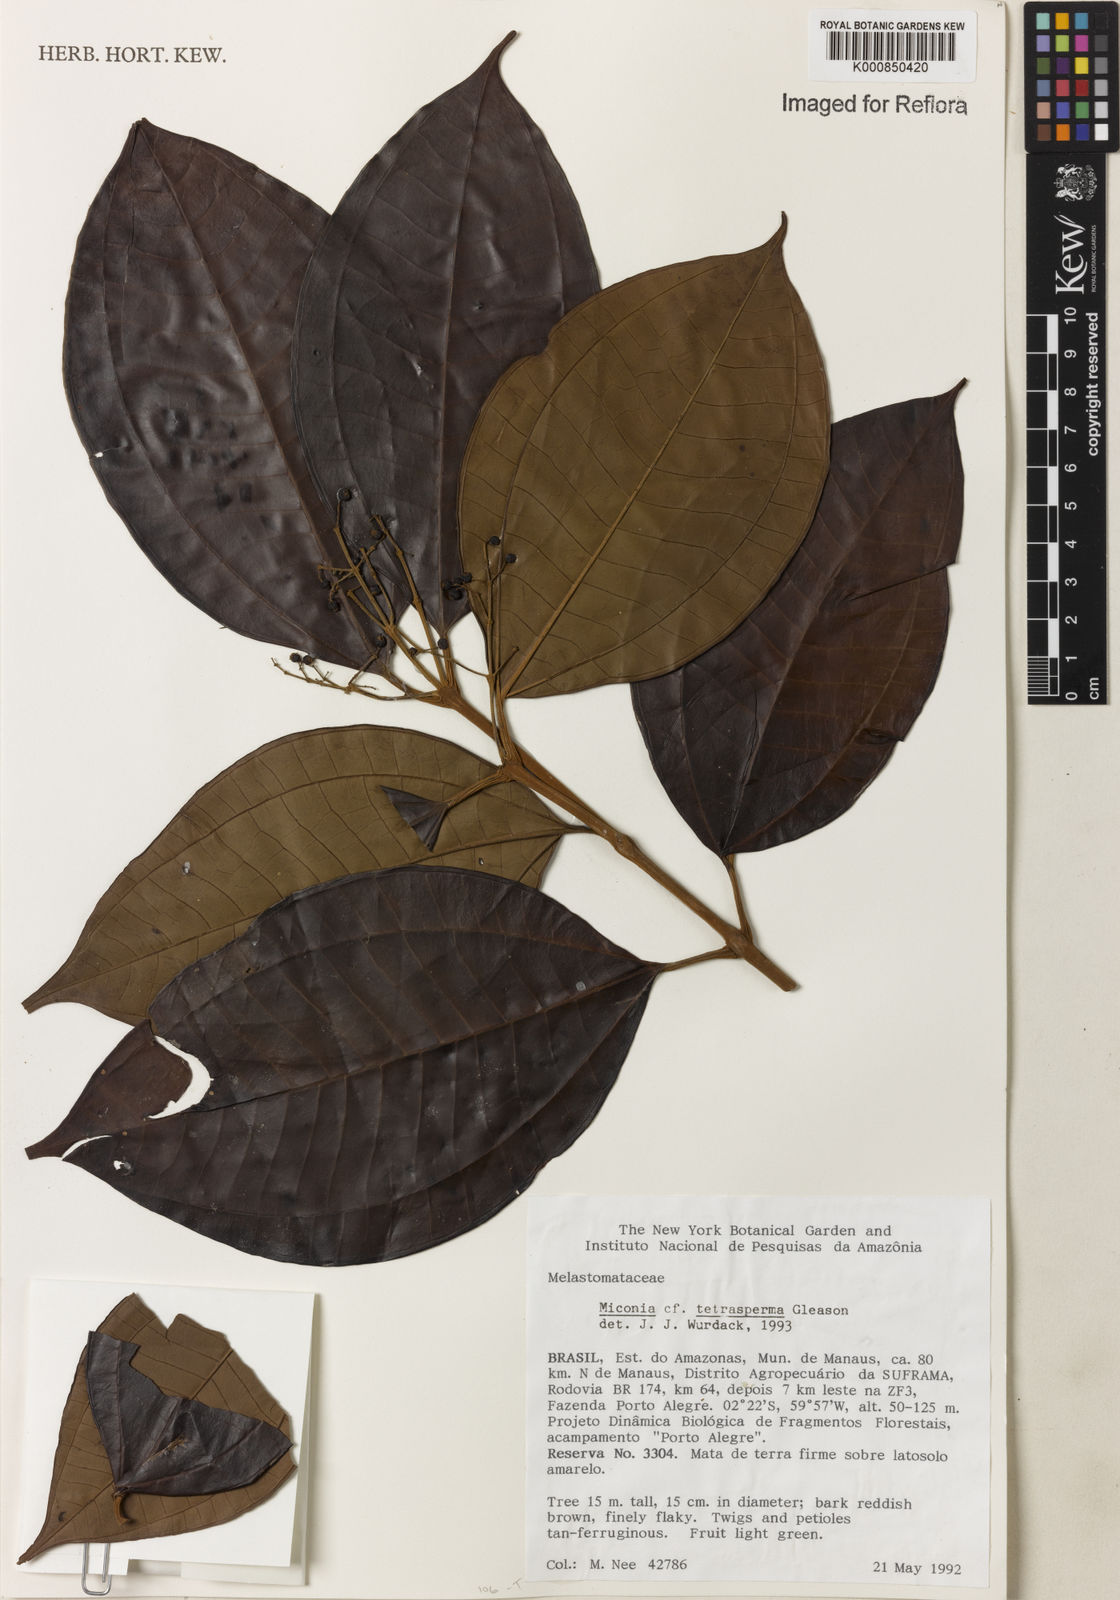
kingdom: Plantae
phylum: Tracheophyta
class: Magnoliopsida
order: Myrtales
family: Melastomataceae
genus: Miconia
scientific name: Miconia tetrasperma
